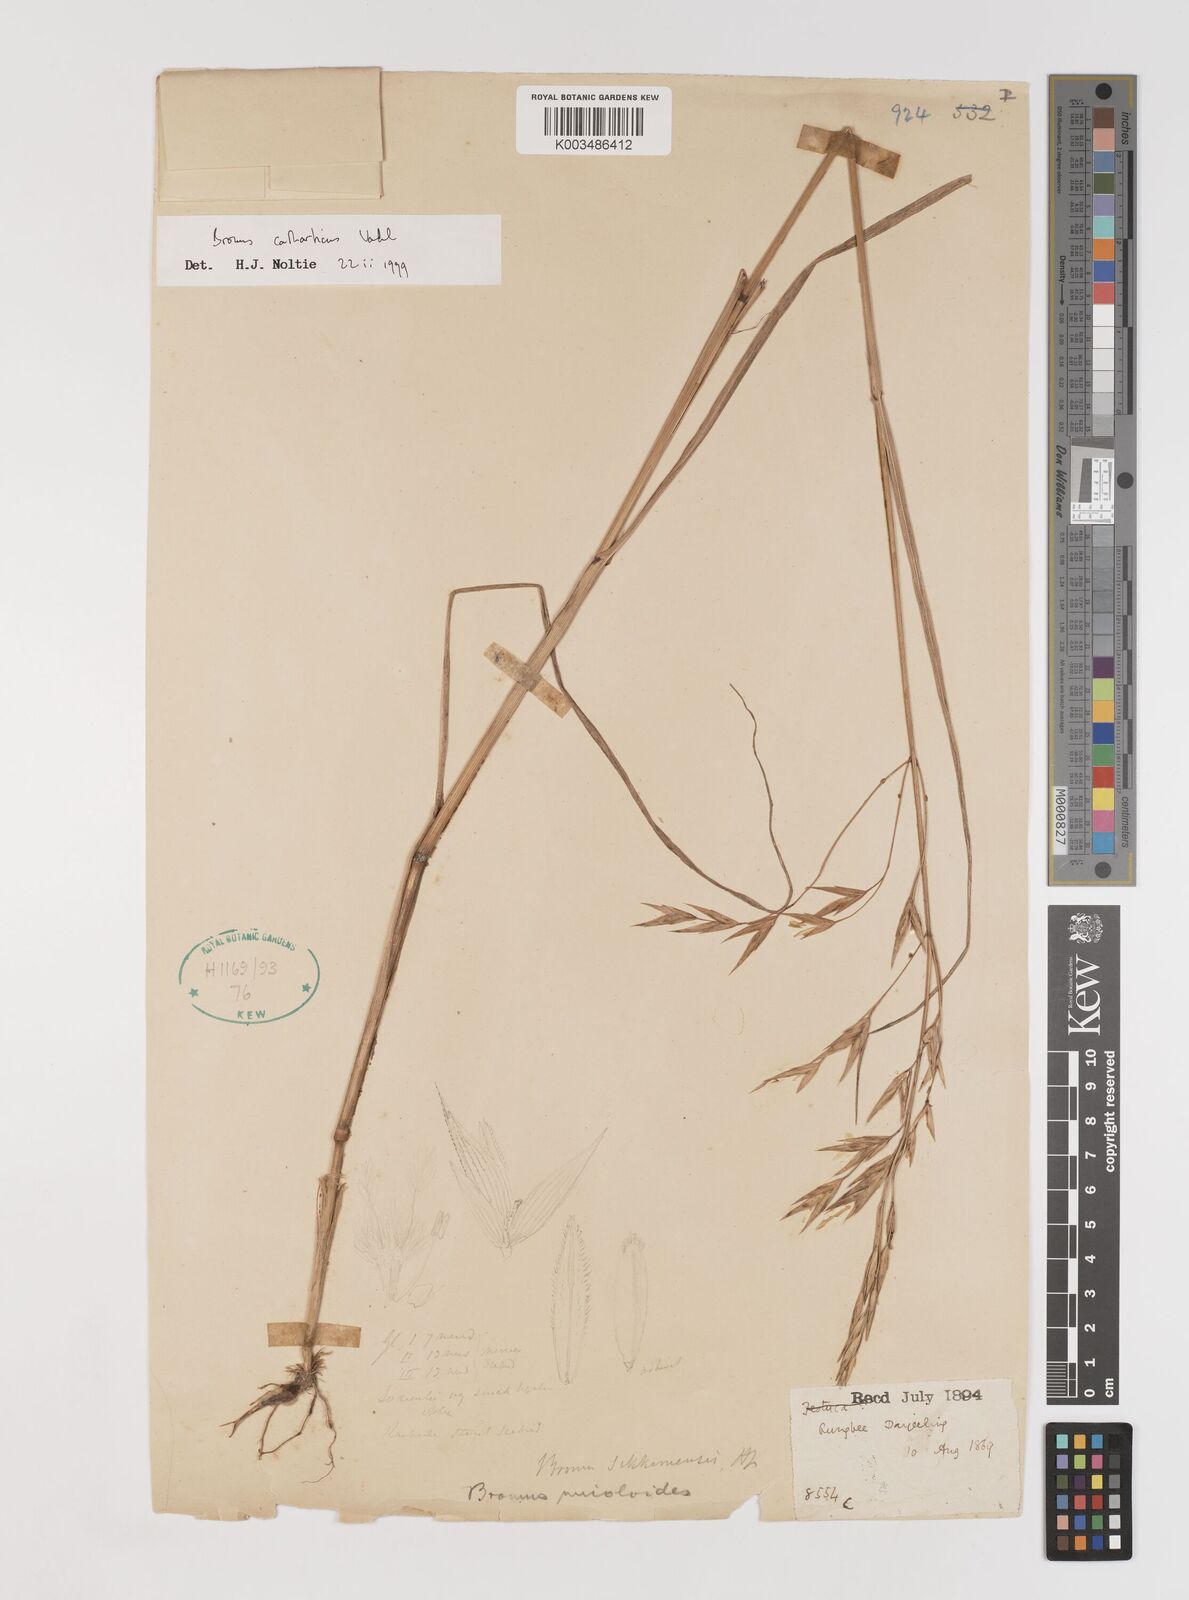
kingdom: Plantae
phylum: Tracheophyta
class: Liliopsida
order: Poales
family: Poaceae
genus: Bromus
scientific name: Bromus catharticus
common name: Rescuegrass
